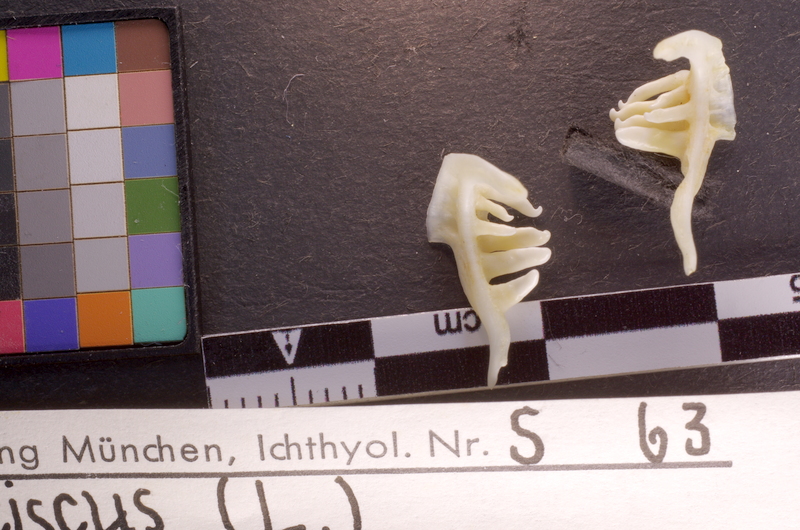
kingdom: Animalia
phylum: Chordata
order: Cypriniformes
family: Cyprinidae
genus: Leuciscus
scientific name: Leuciscus leuciscus
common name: Dace
